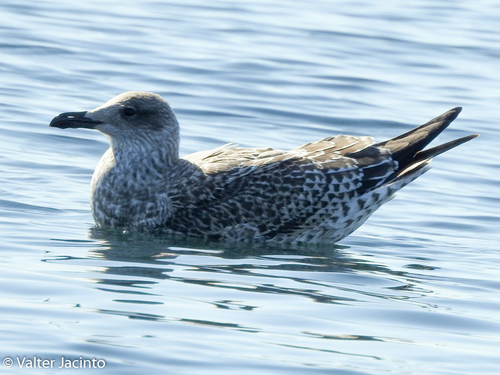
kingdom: Animalia
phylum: Chordata
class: Aves
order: Charadriiformes
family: Laridae
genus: Larus
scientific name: Larus fuscus
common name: Lesser black-backed gull
